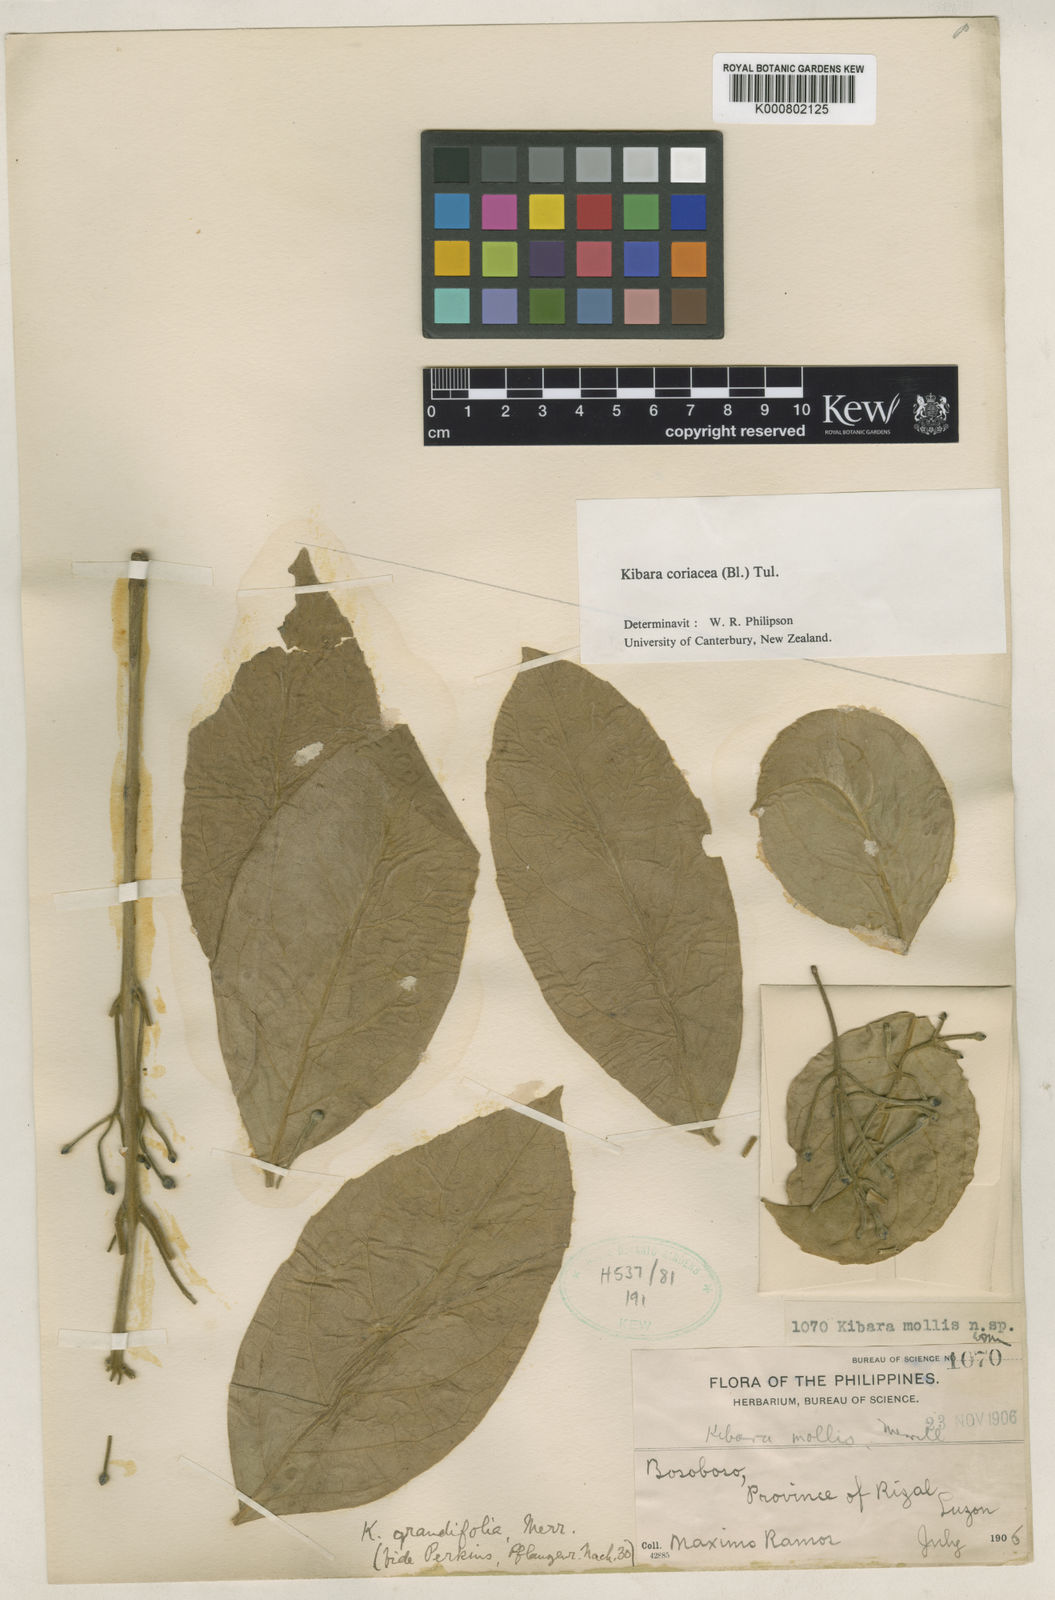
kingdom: Plantae
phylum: Tracheophyta
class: Magnoliopsida
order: Laurales
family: Monimiaceae
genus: Kibara
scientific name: Kibara coriacea
